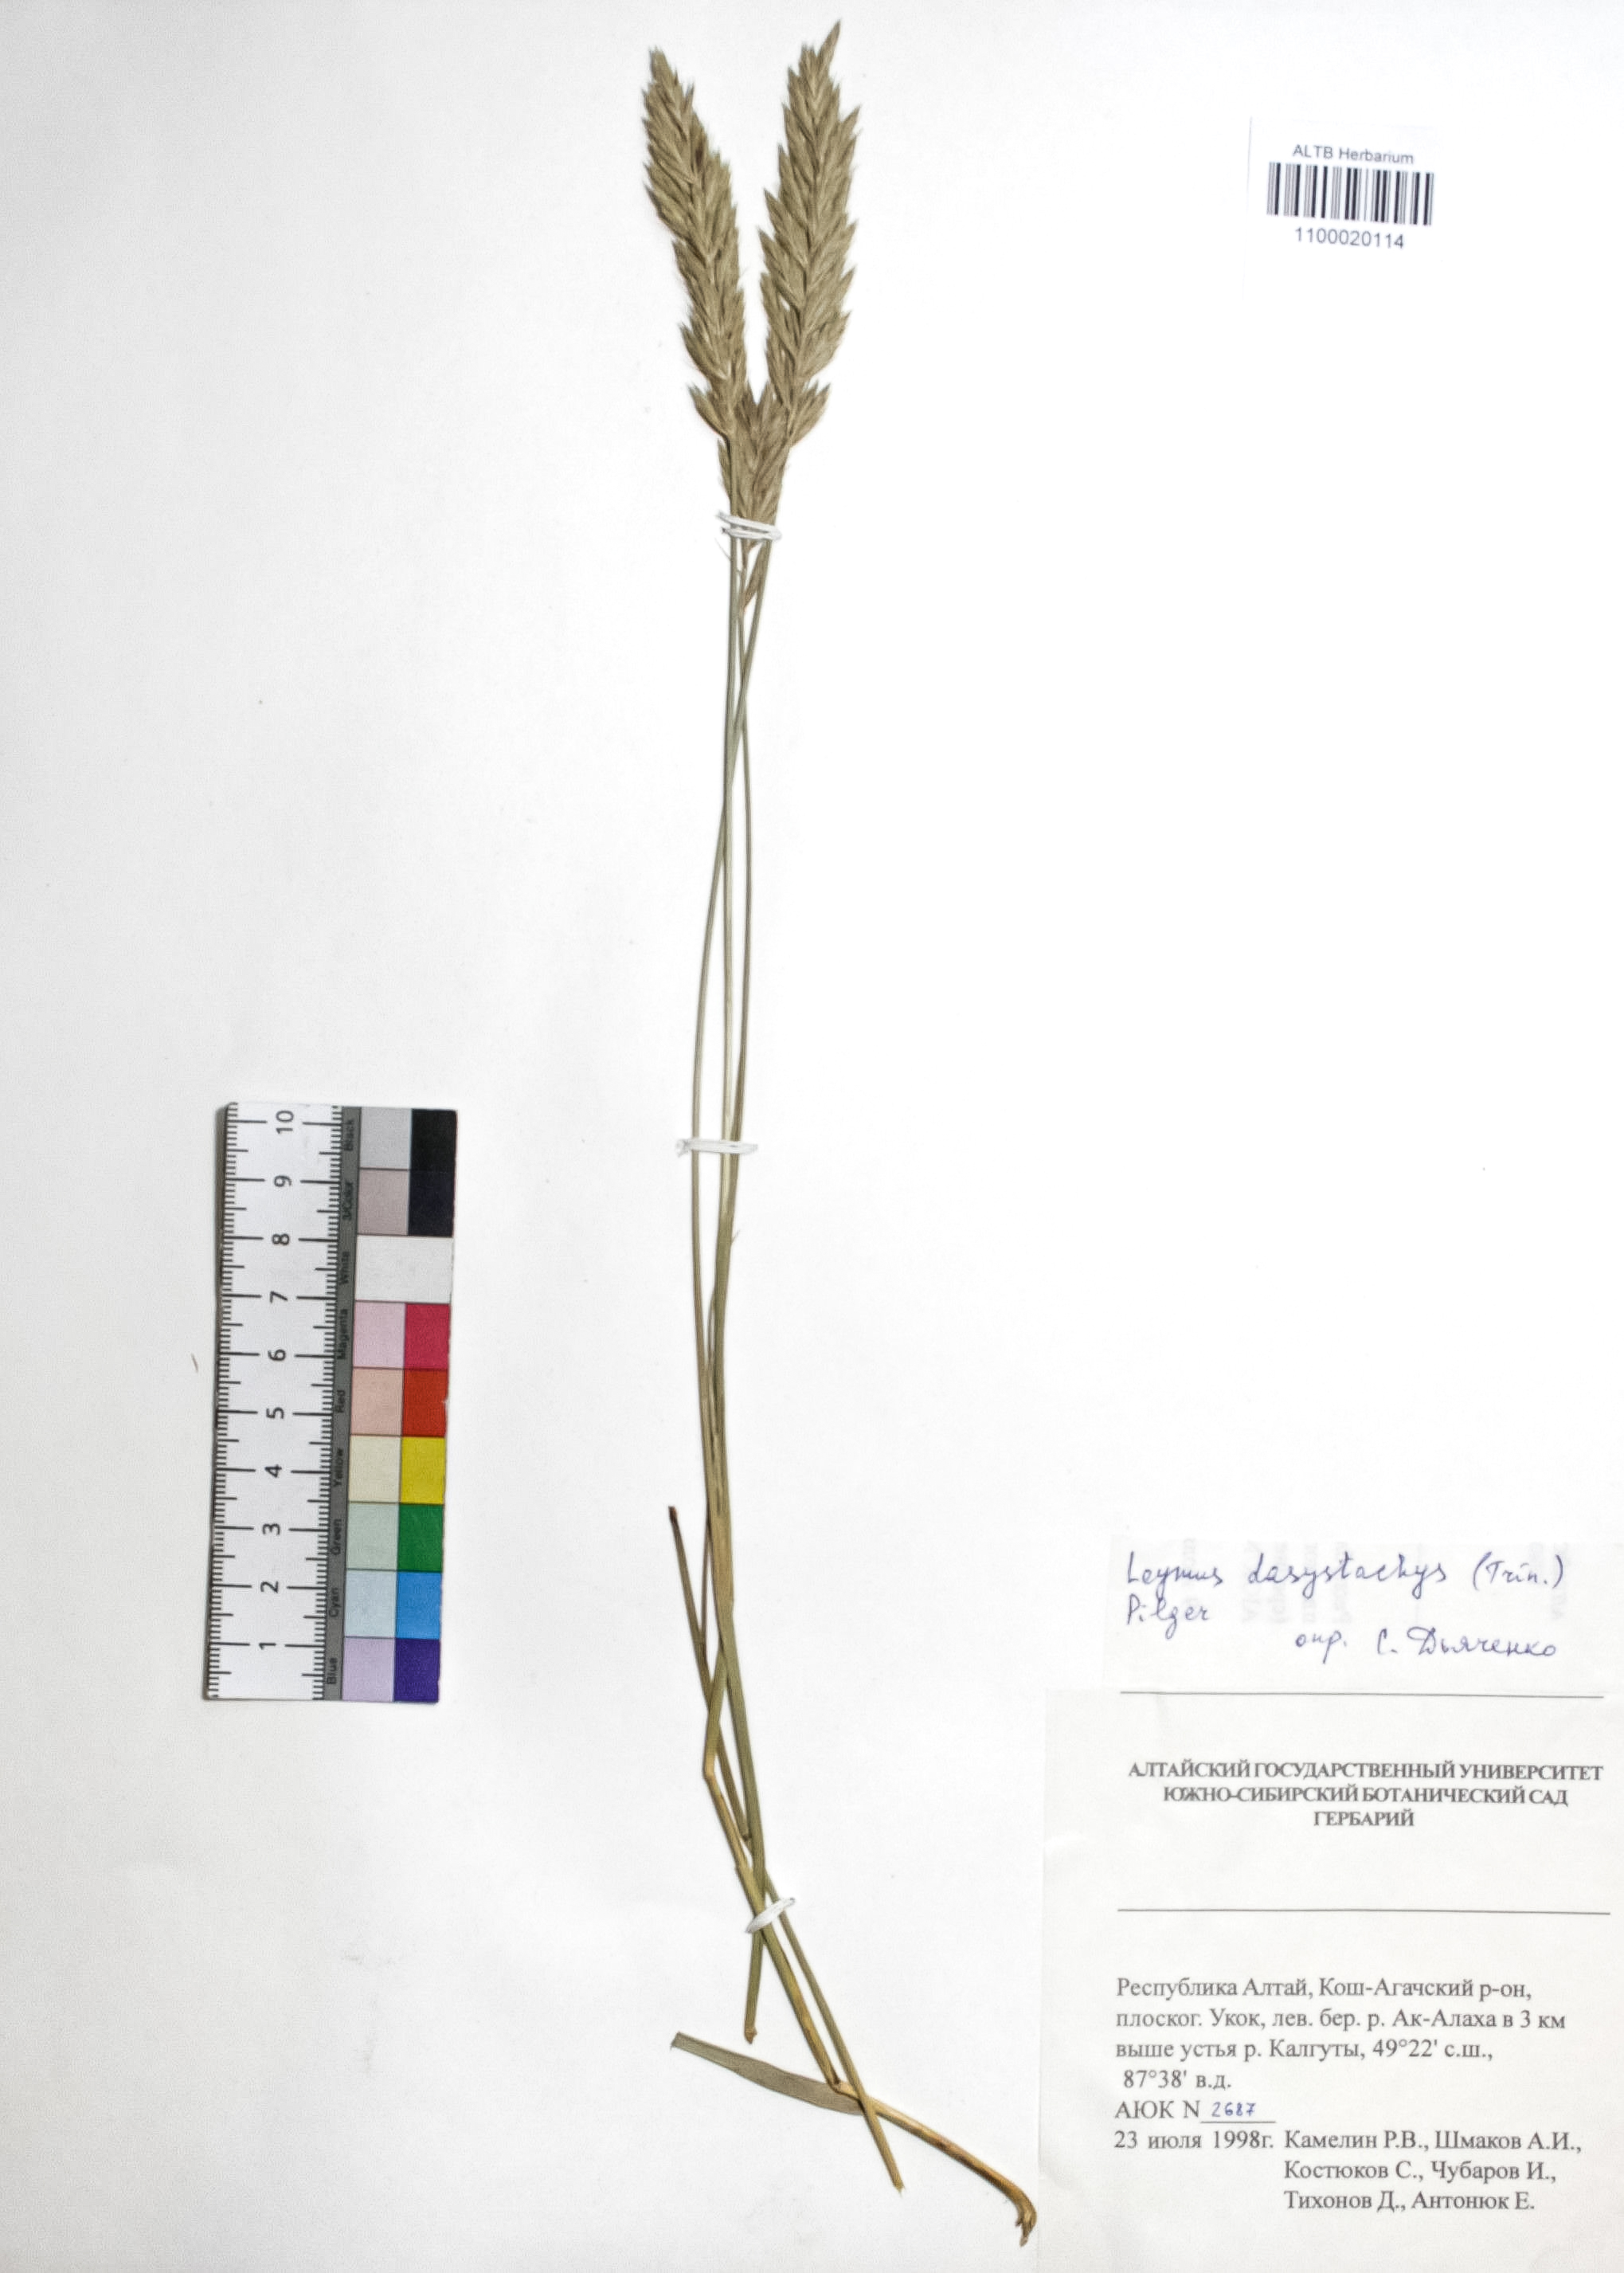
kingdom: Plantae
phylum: Tracheophyta
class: Liliopsida
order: Poales
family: Poaceae
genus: Leymus
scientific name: Leymus secalinus
